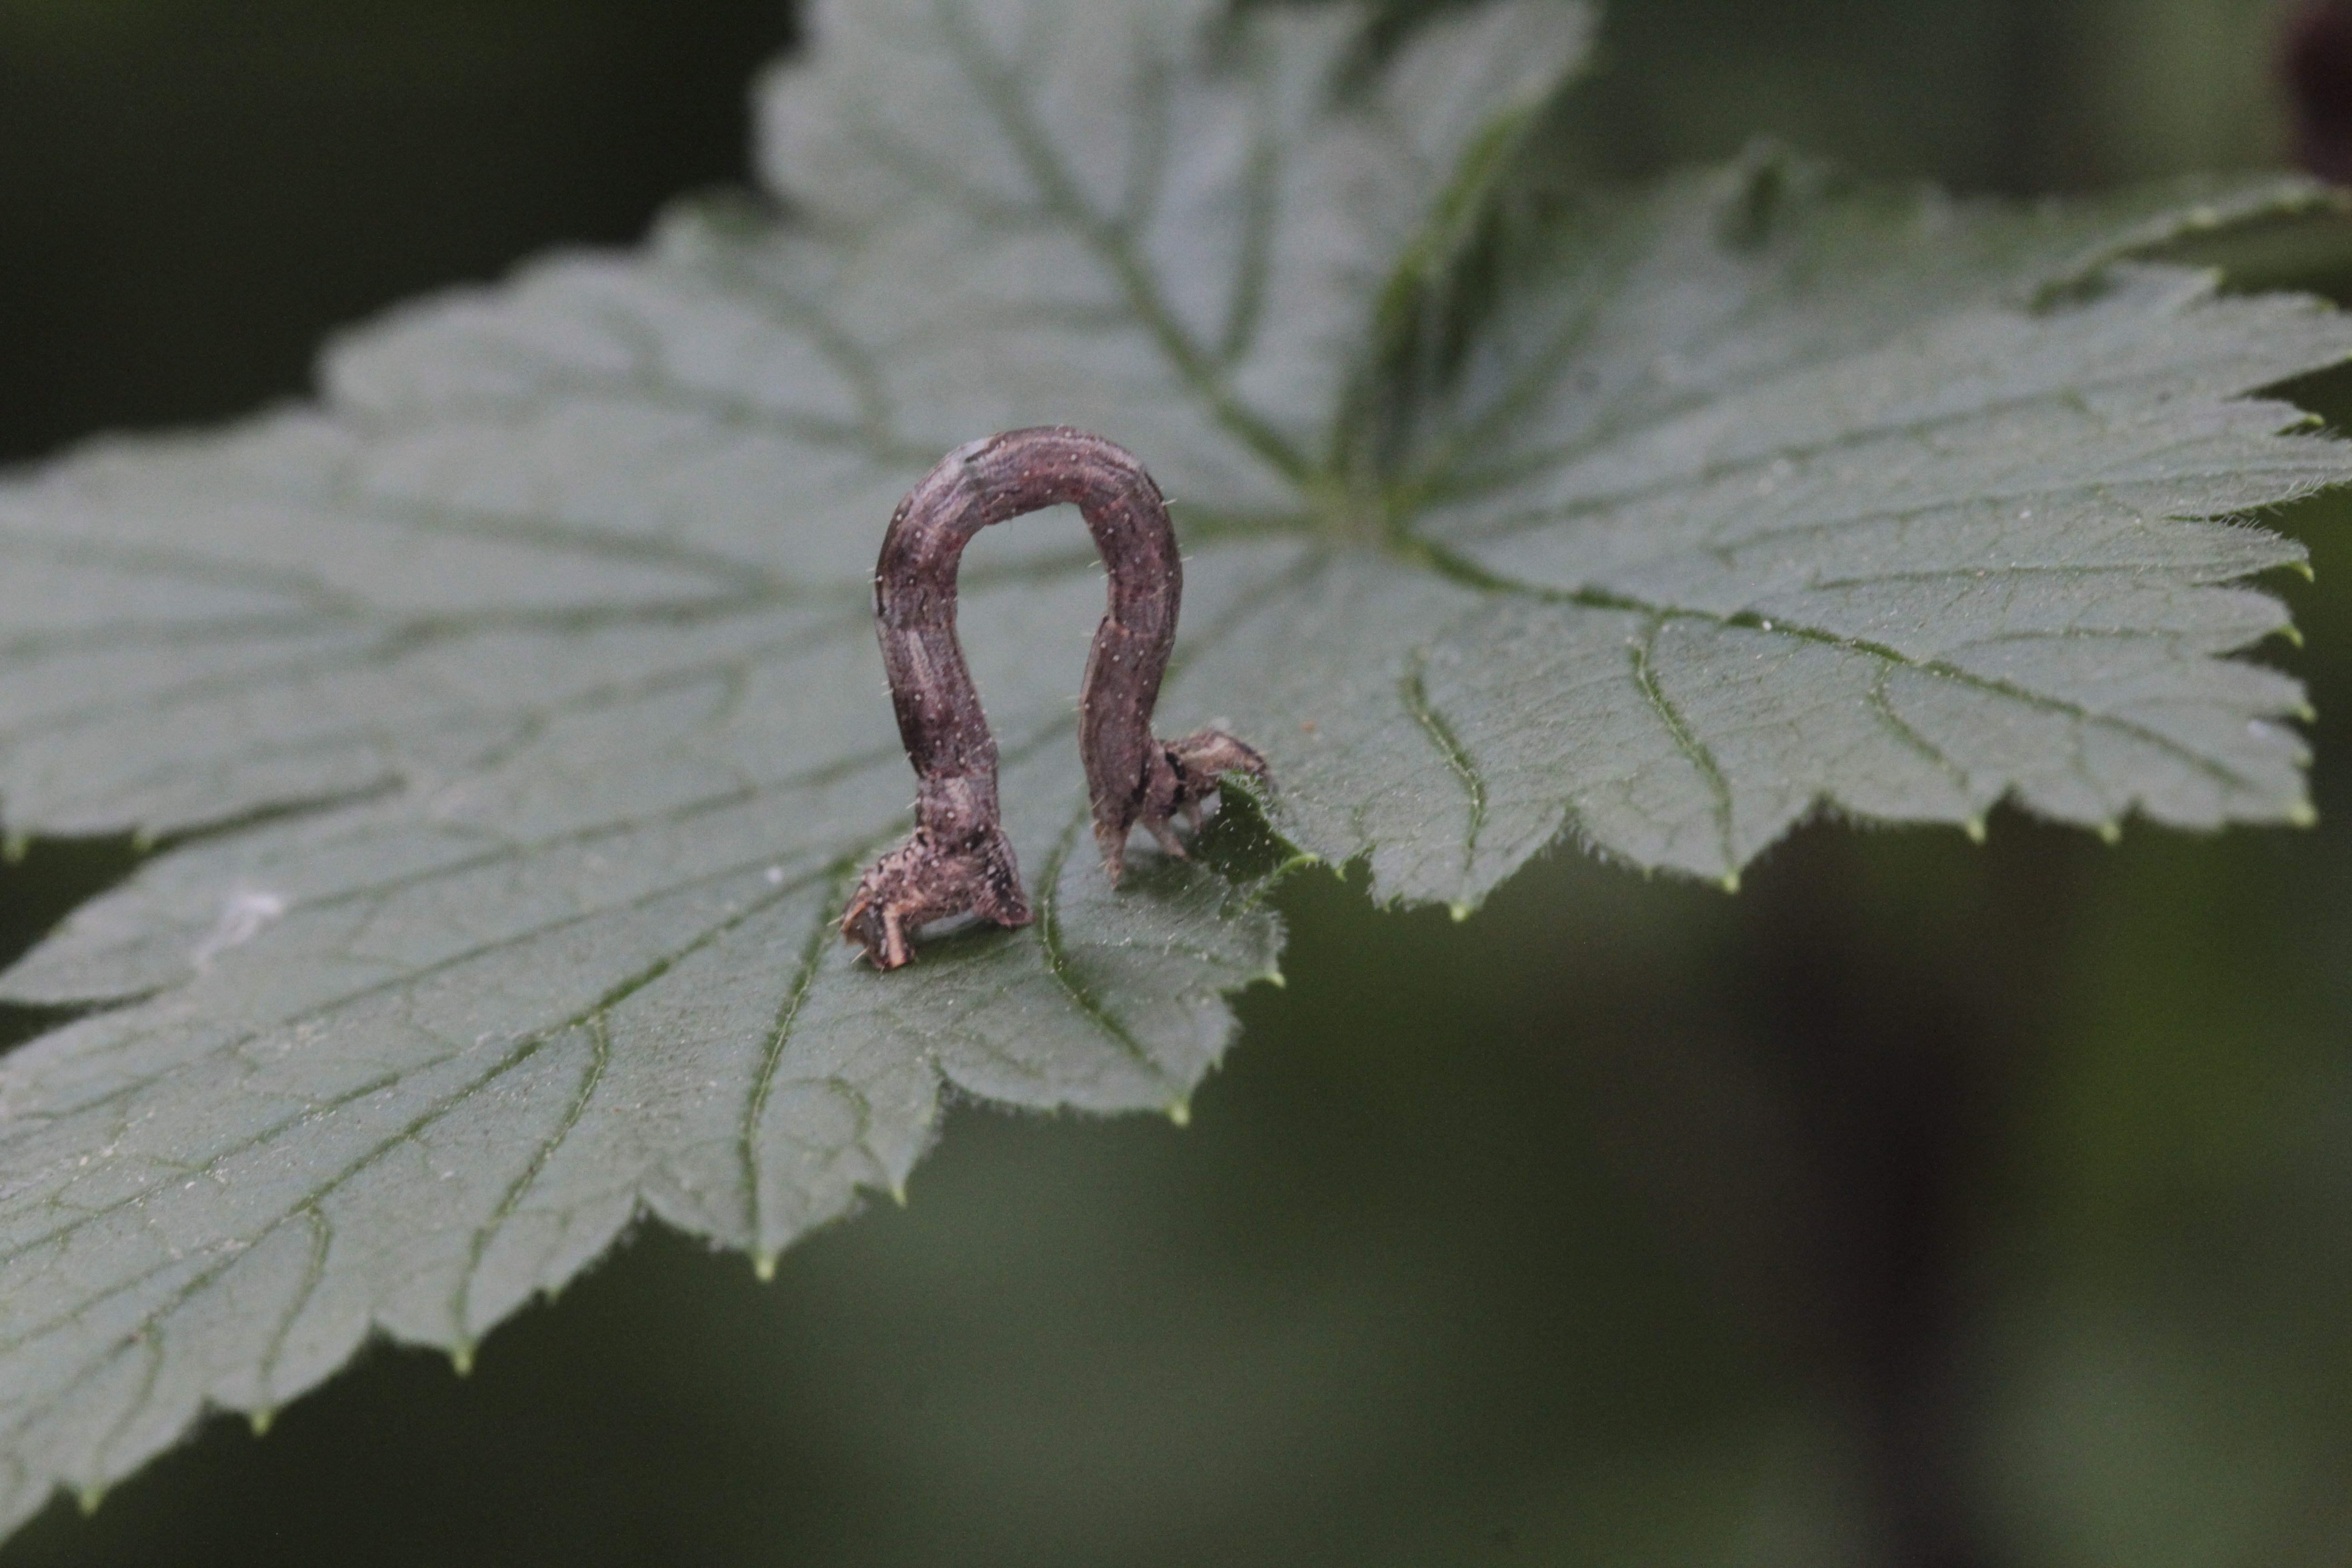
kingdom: Animalia
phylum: Arthropoda
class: Insecta
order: Lepidoptera
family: Geometridae
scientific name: Geometridae
